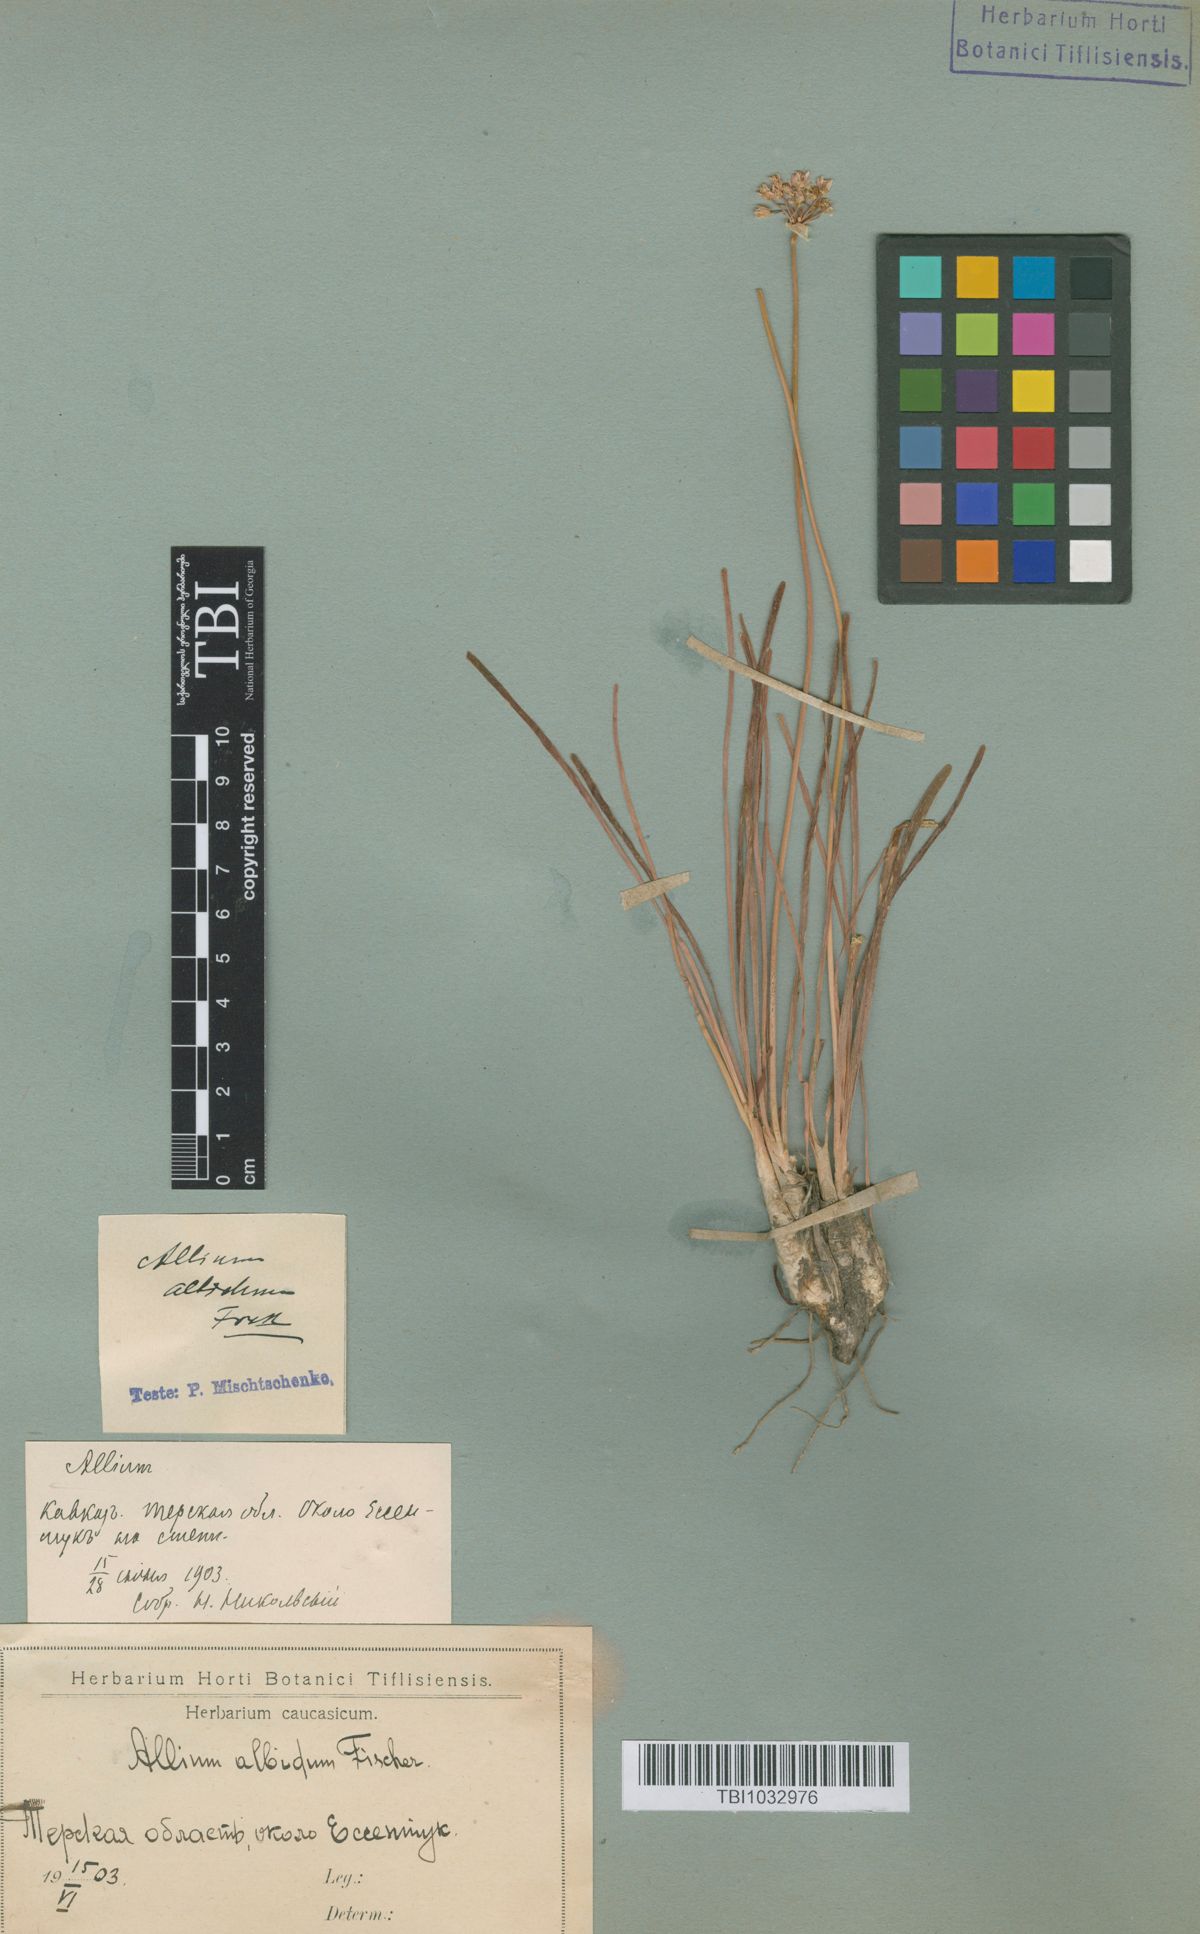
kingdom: Plantae
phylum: Tracheophyta
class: Liliopsida
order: Asparagales
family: Amaryllidaceae
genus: Allium
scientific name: Allium denudatum
